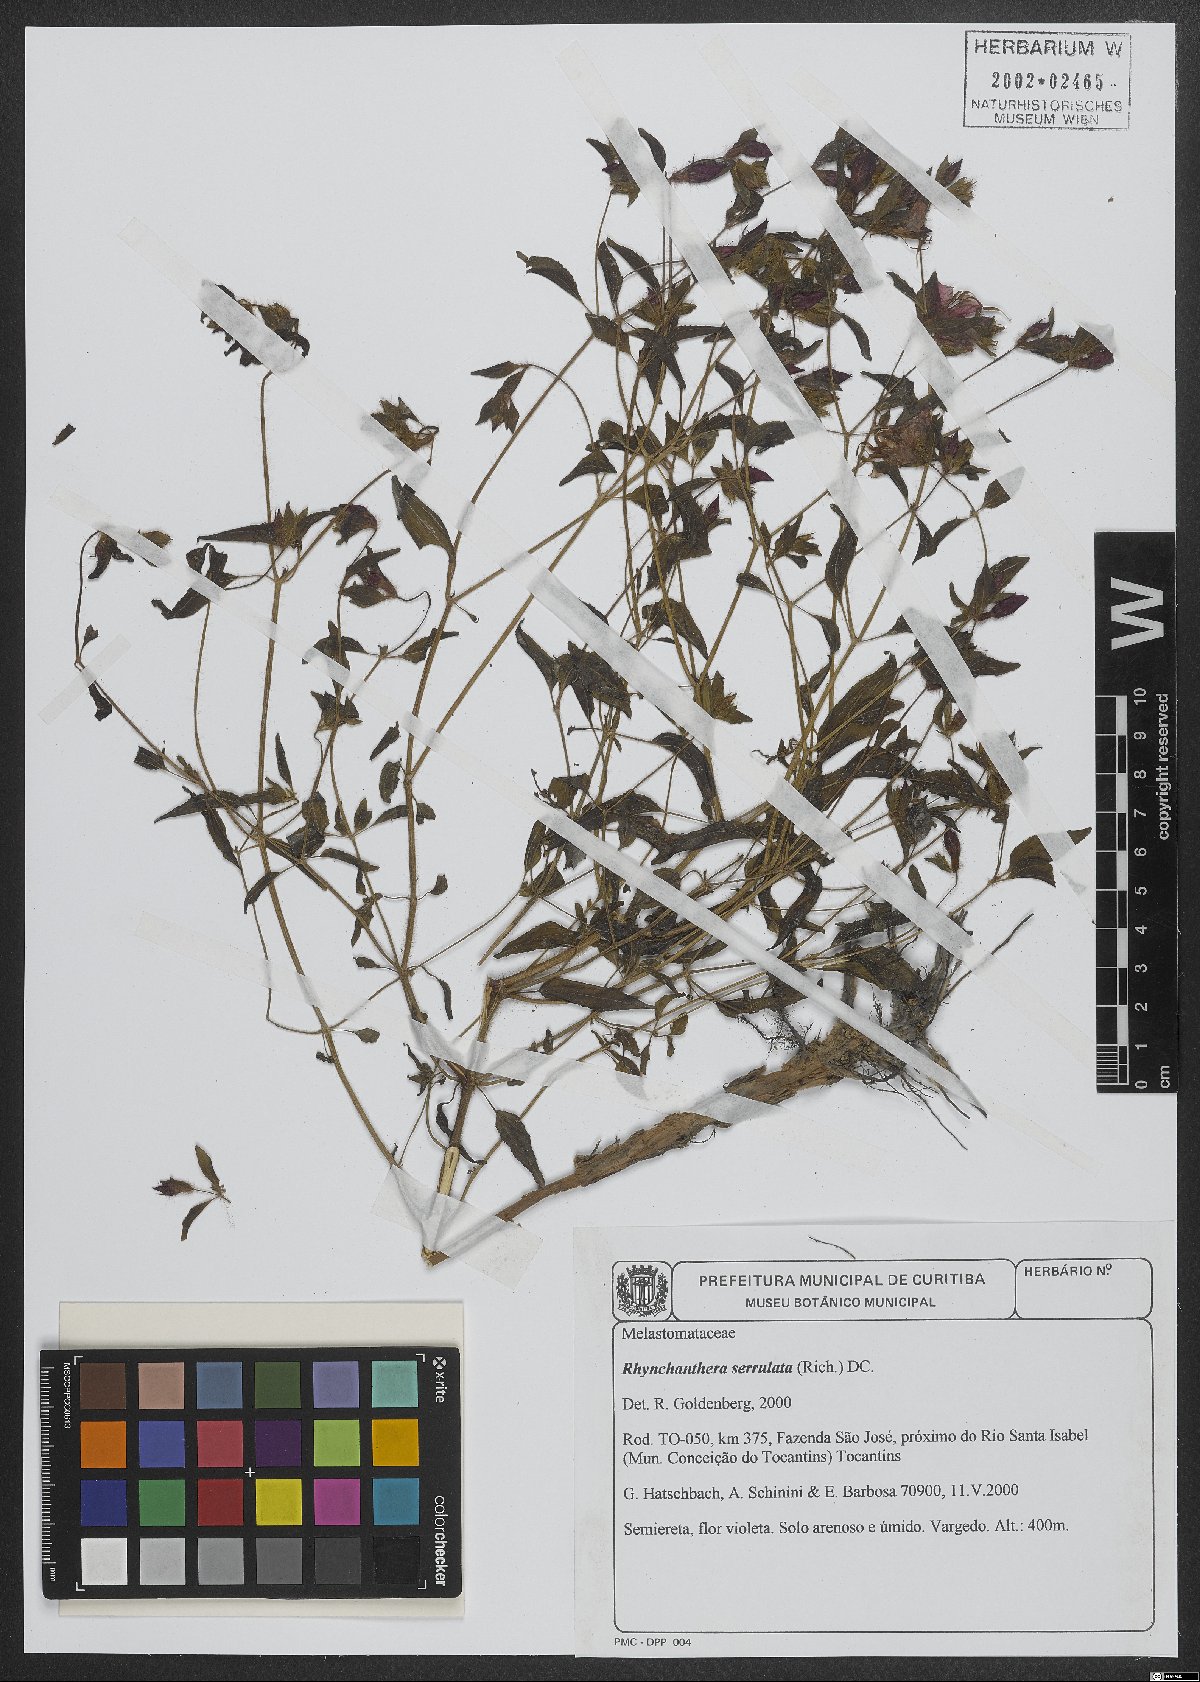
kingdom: Plantae
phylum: Tracheophyta
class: Magnoliopsida
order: Myrtales
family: Melastomataceae
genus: Rhynchanthera
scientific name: Rhynchanthera serrulata
